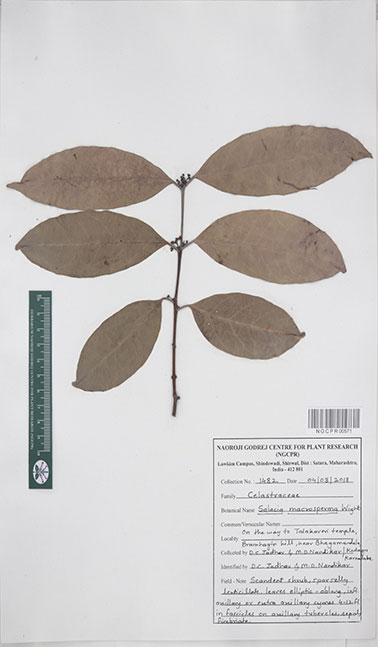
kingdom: Plantae
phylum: Tracheophyta
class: Magnoliopsida
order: Celastrales
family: Celastraceae
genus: Salacia
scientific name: Salacia macrosperma
